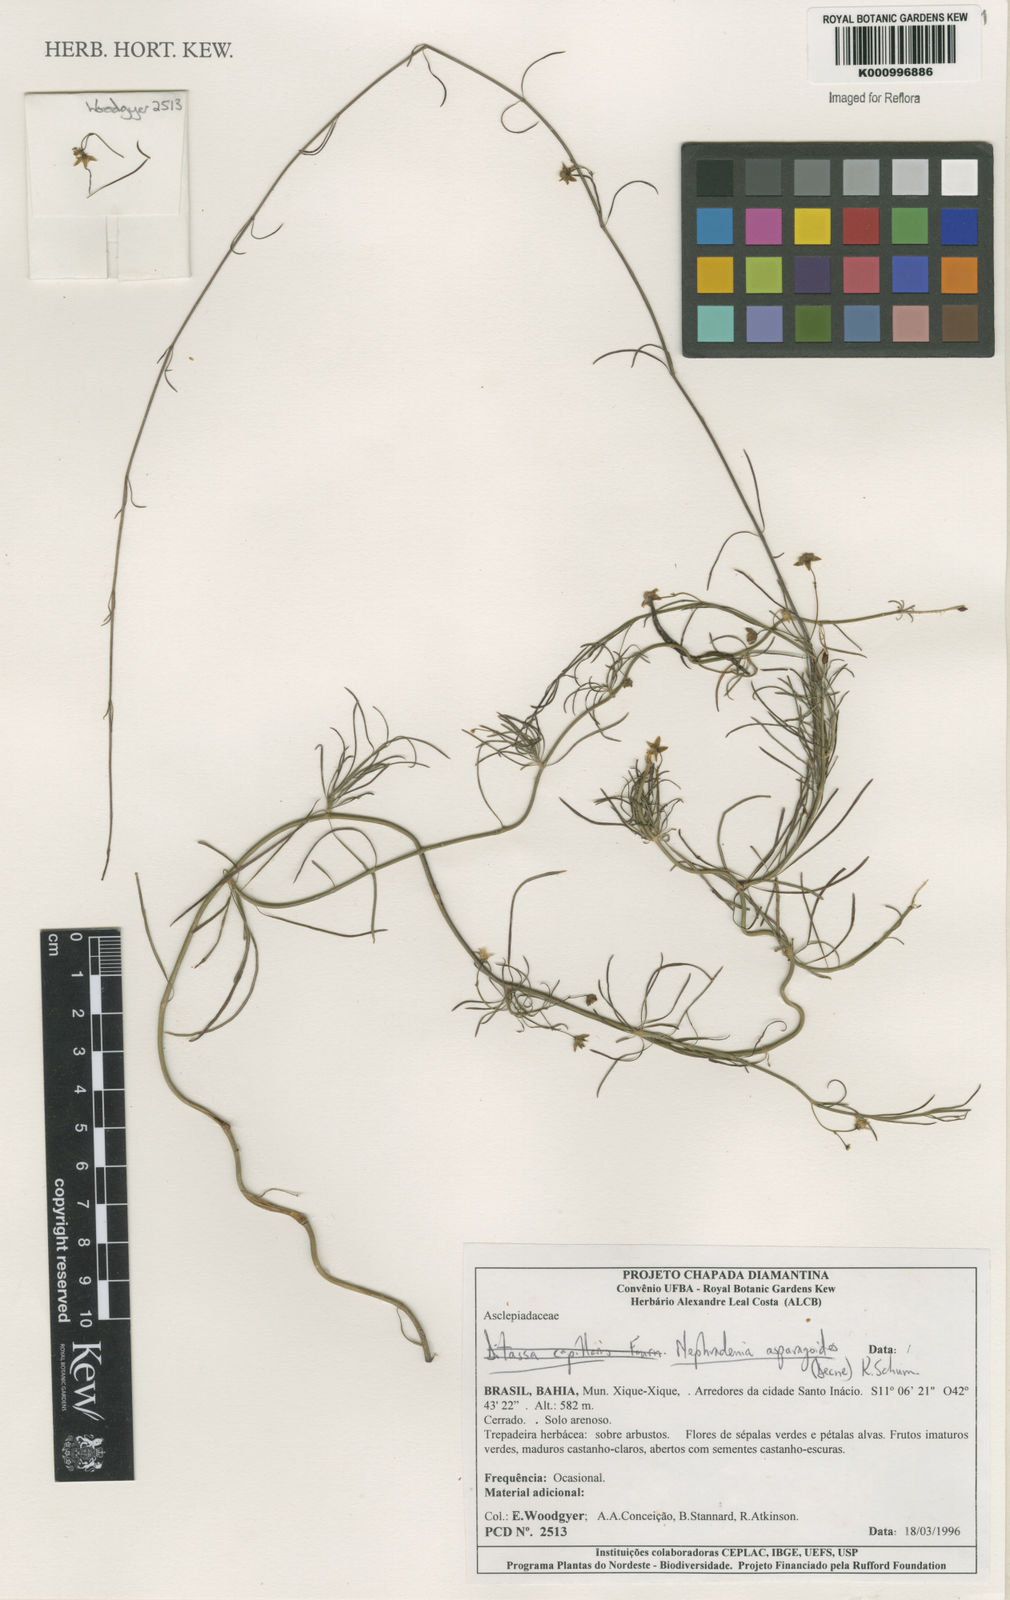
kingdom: Plantae
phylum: Tracheophyta
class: Magnoliopsida
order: Gentianales
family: Apocynaceae
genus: Nephradenia
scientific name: Nephradenia asparagoides
